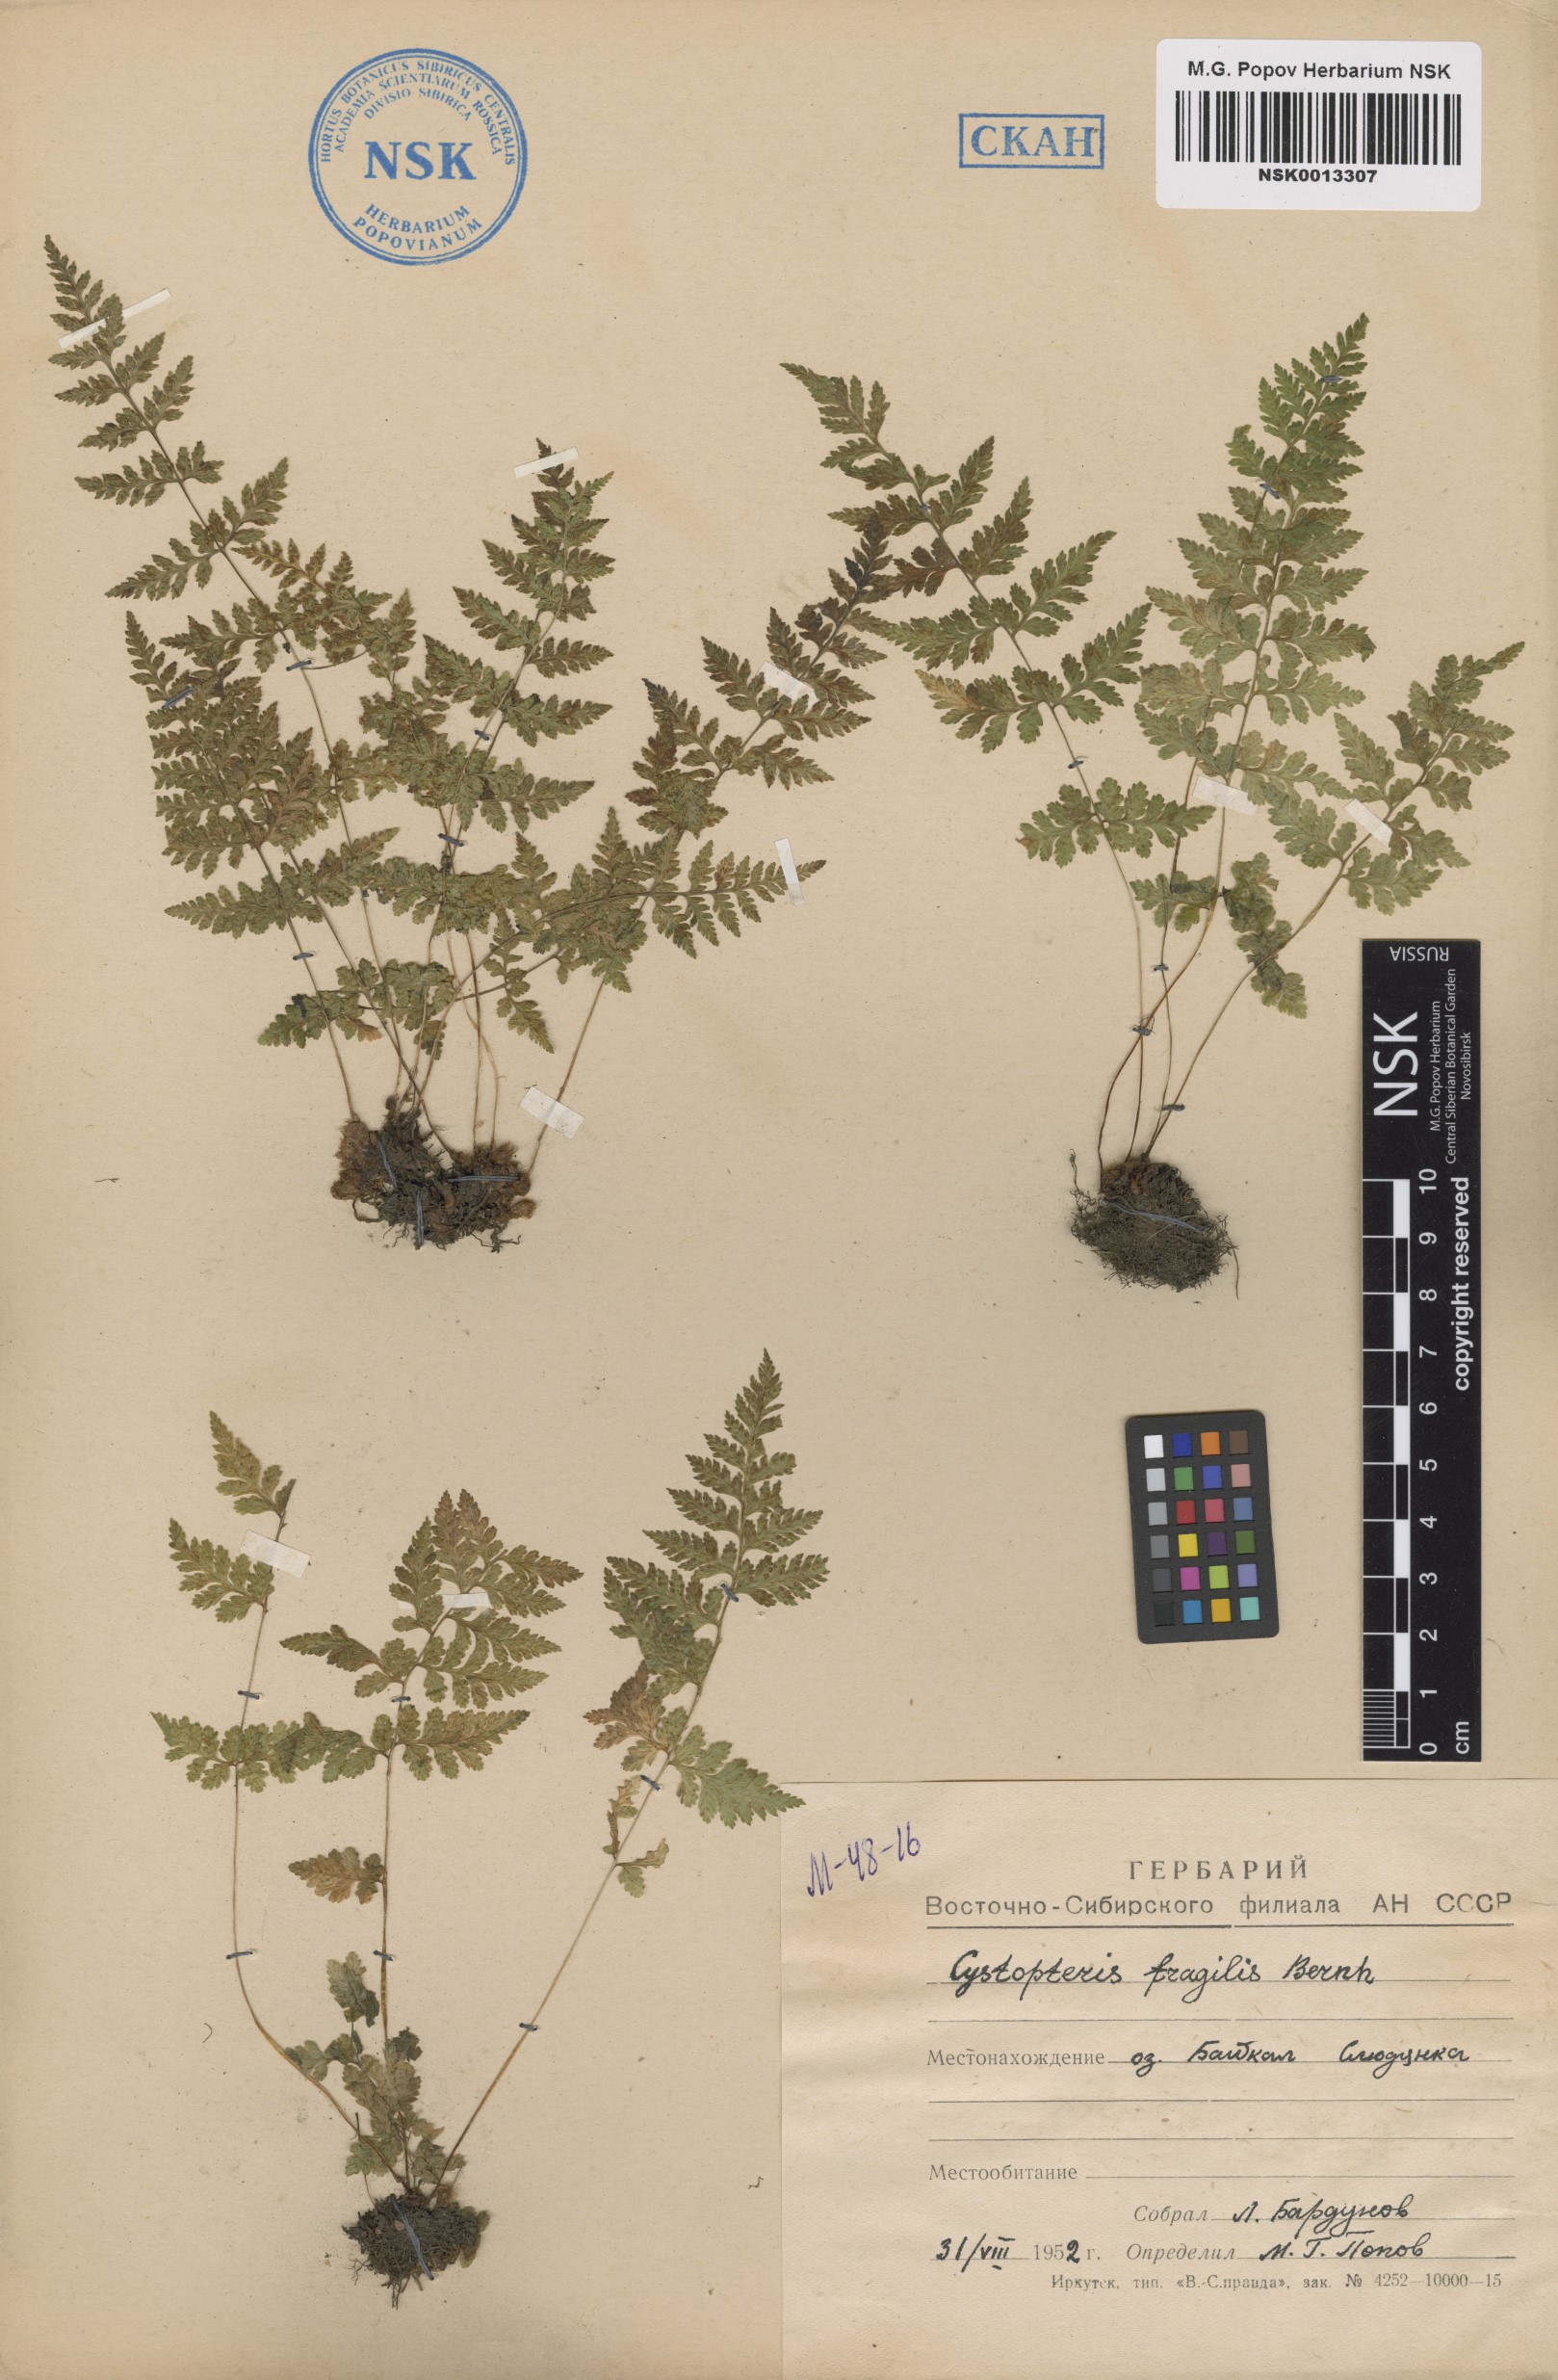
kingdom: Plantae
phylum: Tracheophyta
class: Polypodiopsida
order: Polypodiales
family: Cystopteridaceae
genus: Cystopteris
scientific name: Cystopteris fragilis
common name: Brittle bladder fern
